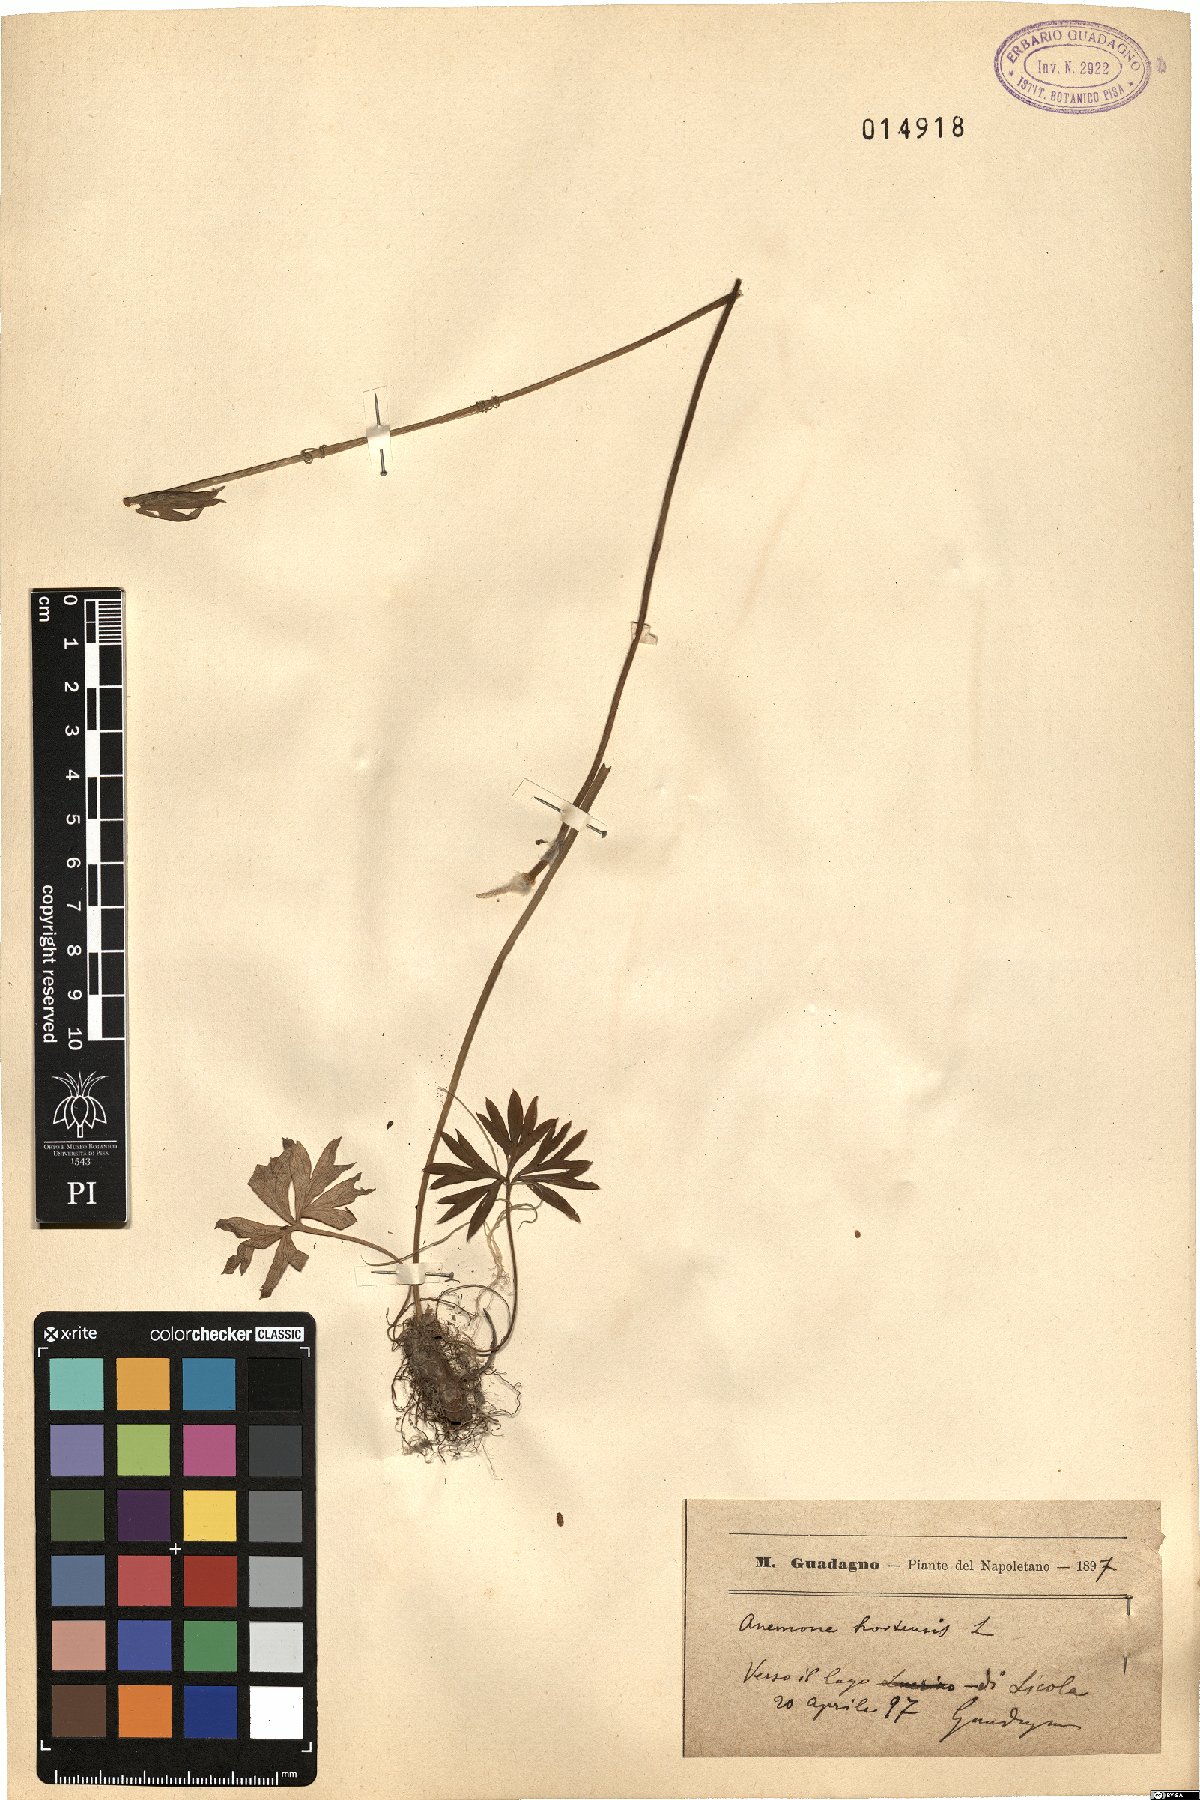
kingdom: Plantae
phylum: Tracheophyta
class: Magnoliopsida
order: Ranunculales
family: Ranunculaceae
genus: Anemone
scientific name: Anemone hortensis
